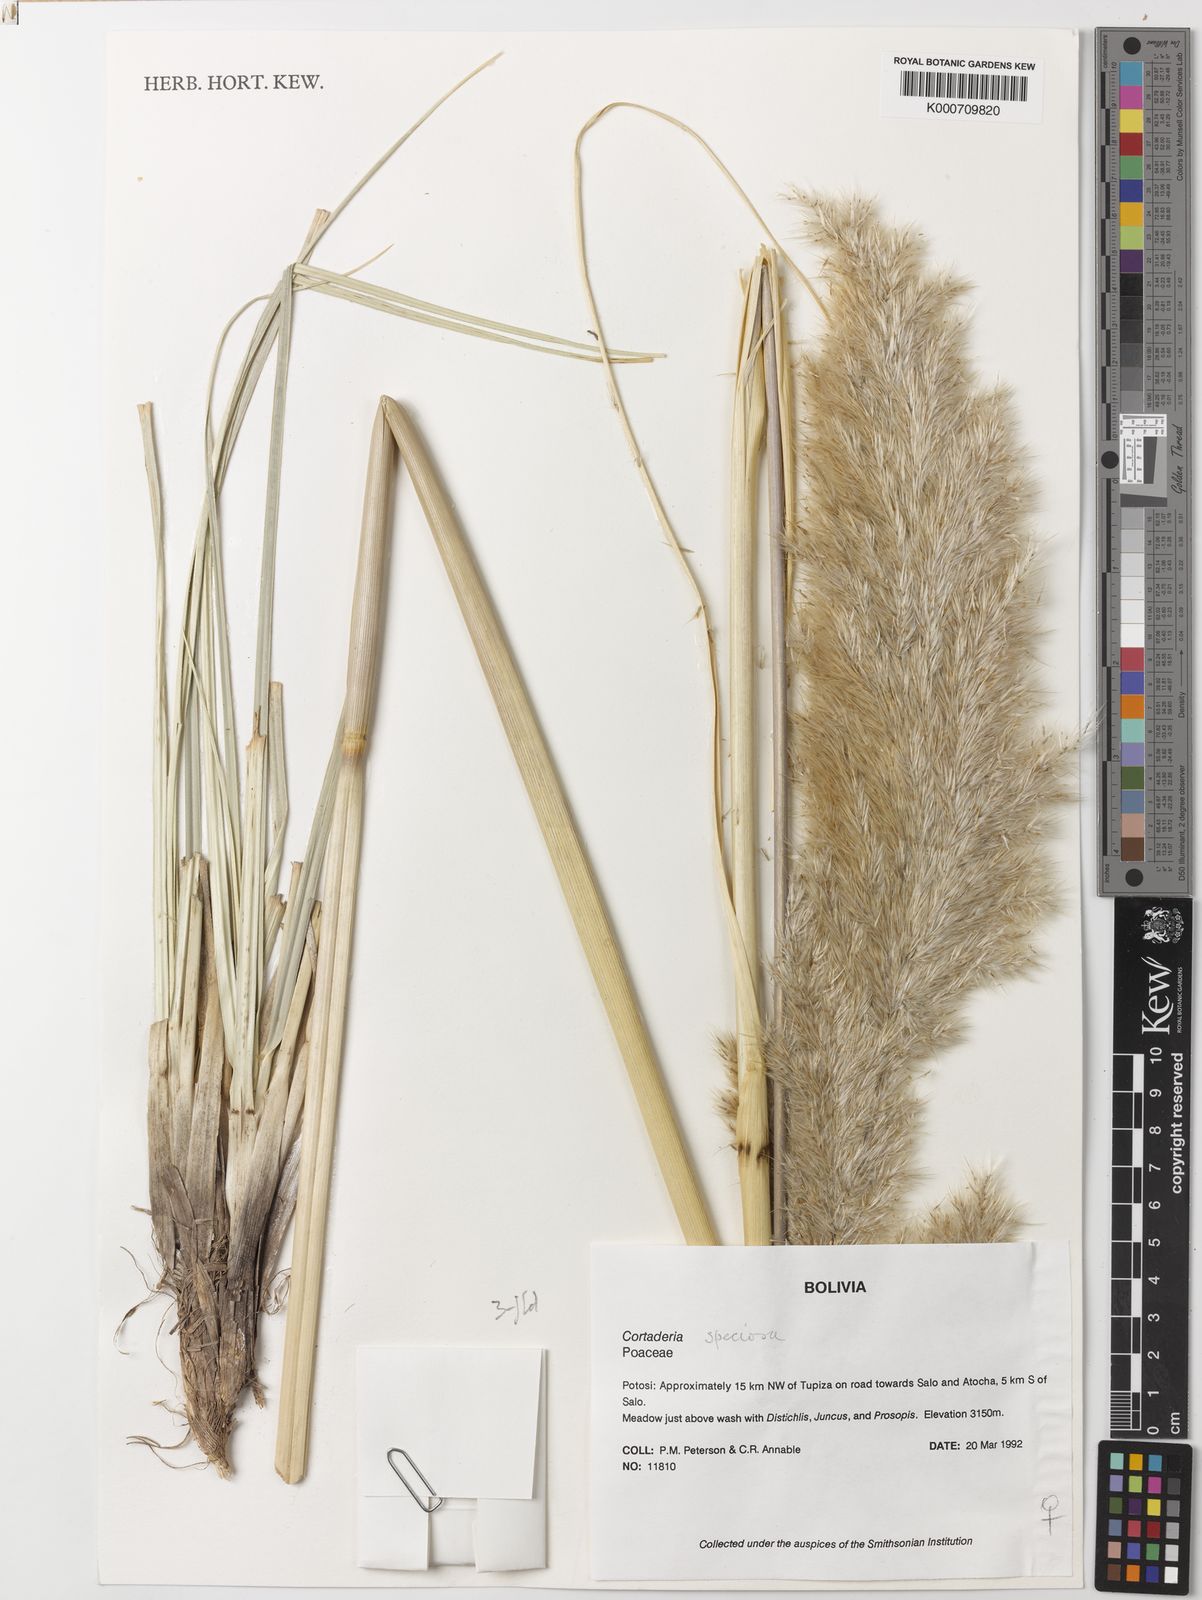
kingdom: Plantae
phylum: Tracheophyta
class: Liliopsida
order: Poales
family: Poaceae
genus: Cortaderia
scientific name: Cortaderia speciosa
